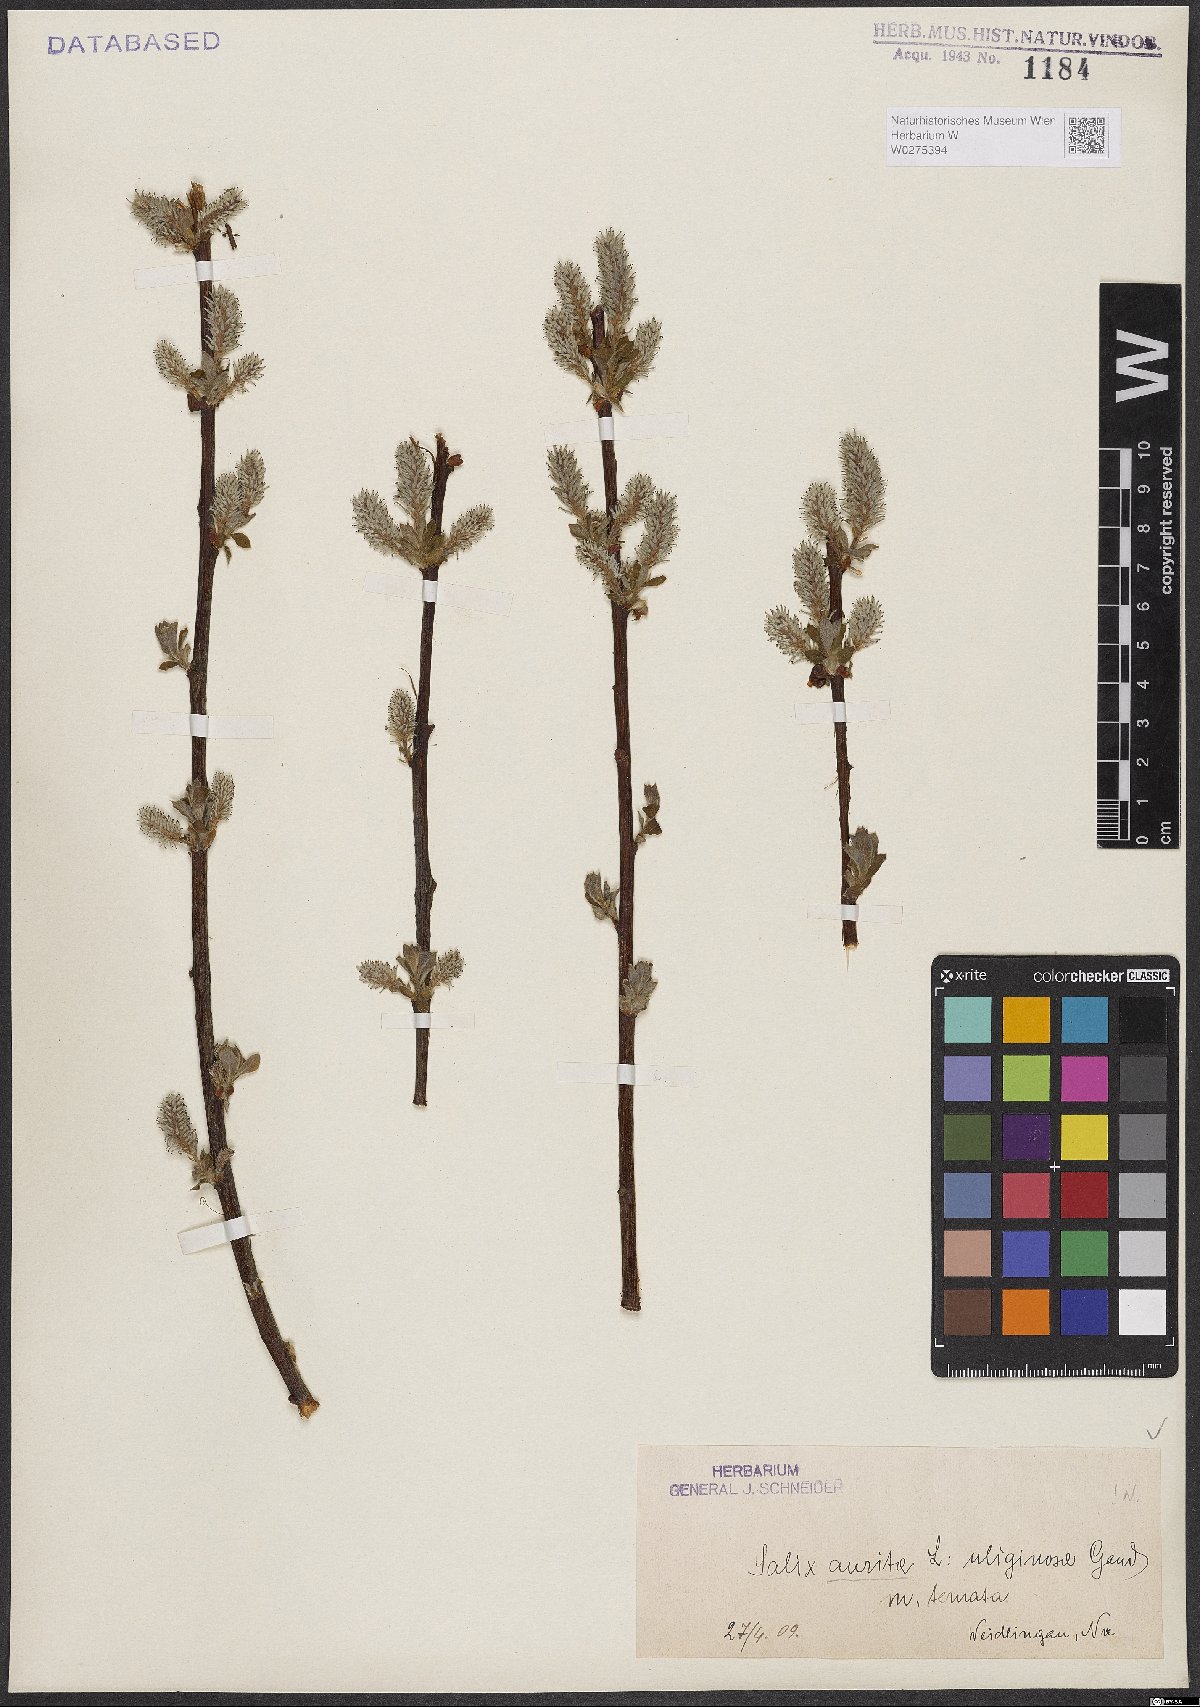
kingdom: Plantae
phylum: Tracheophyta
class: Magnoliopsida
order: Malpighiales
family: Salicaceae
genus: Salix
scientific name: Salix aurita
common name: Eared willow
